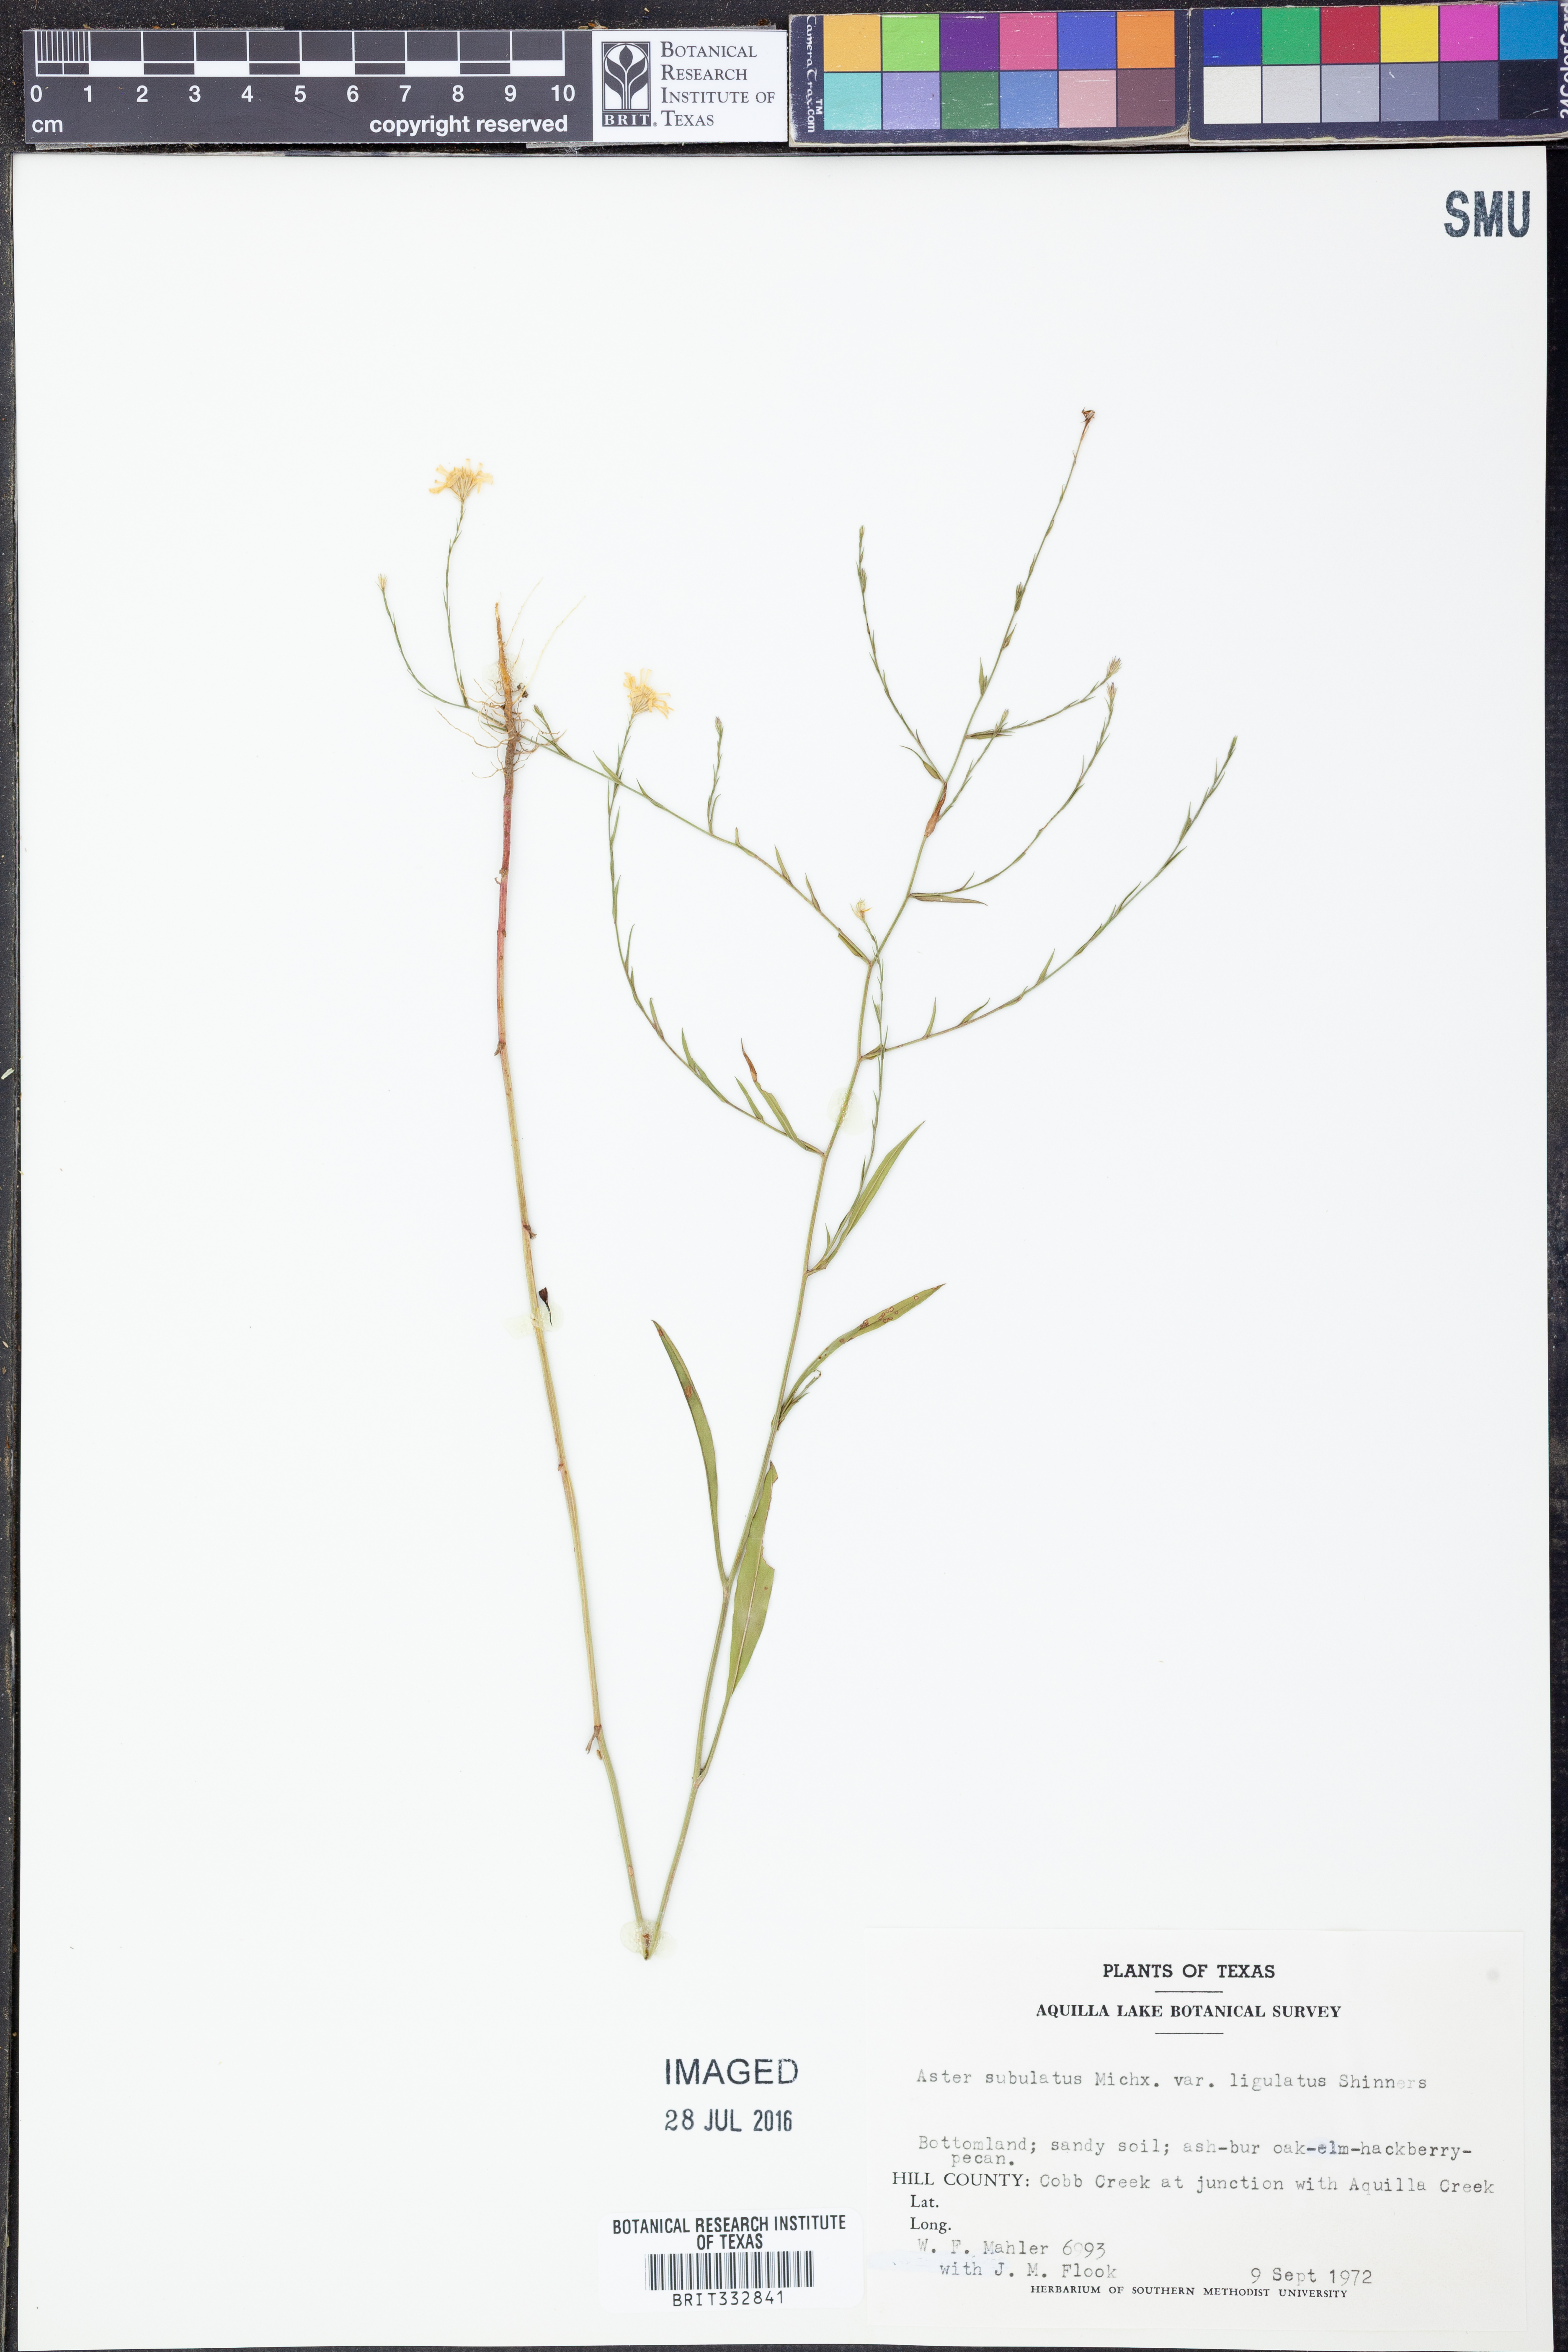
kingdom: Plantae
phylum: Tracheophyta
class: Magnoliopsida
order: Asterales
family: Asteraceae
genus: Symphyotrichum
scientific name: Symphyotrichum divaricatum
